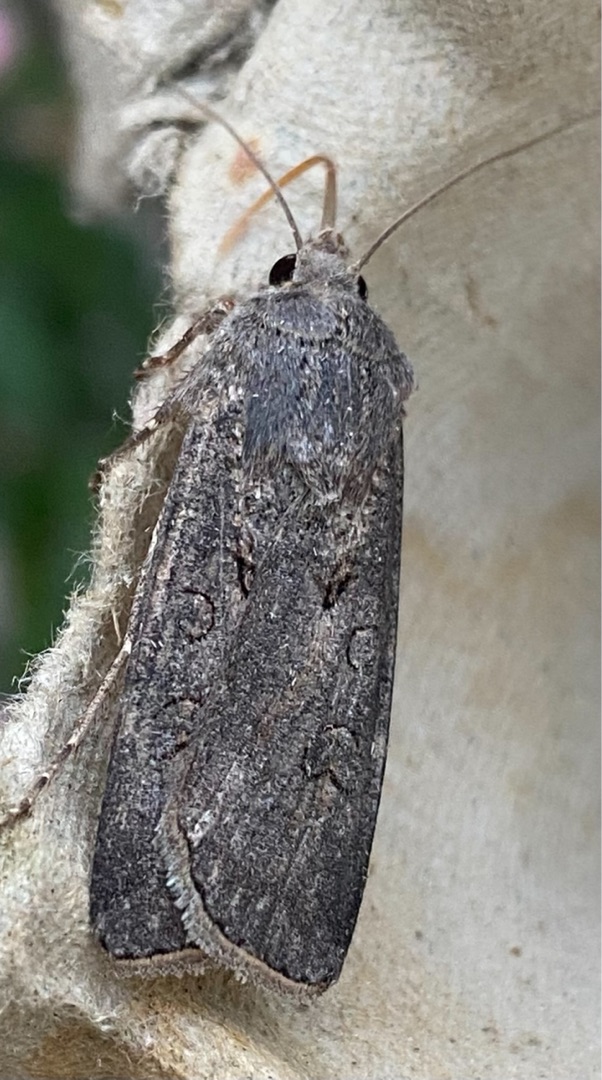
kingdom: Animalia
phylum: Arthropoda
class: Insecta
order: Lepidoptera
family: Noctuidae
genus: Agrotis
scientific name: Agrotis segetum
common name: Agerugle
